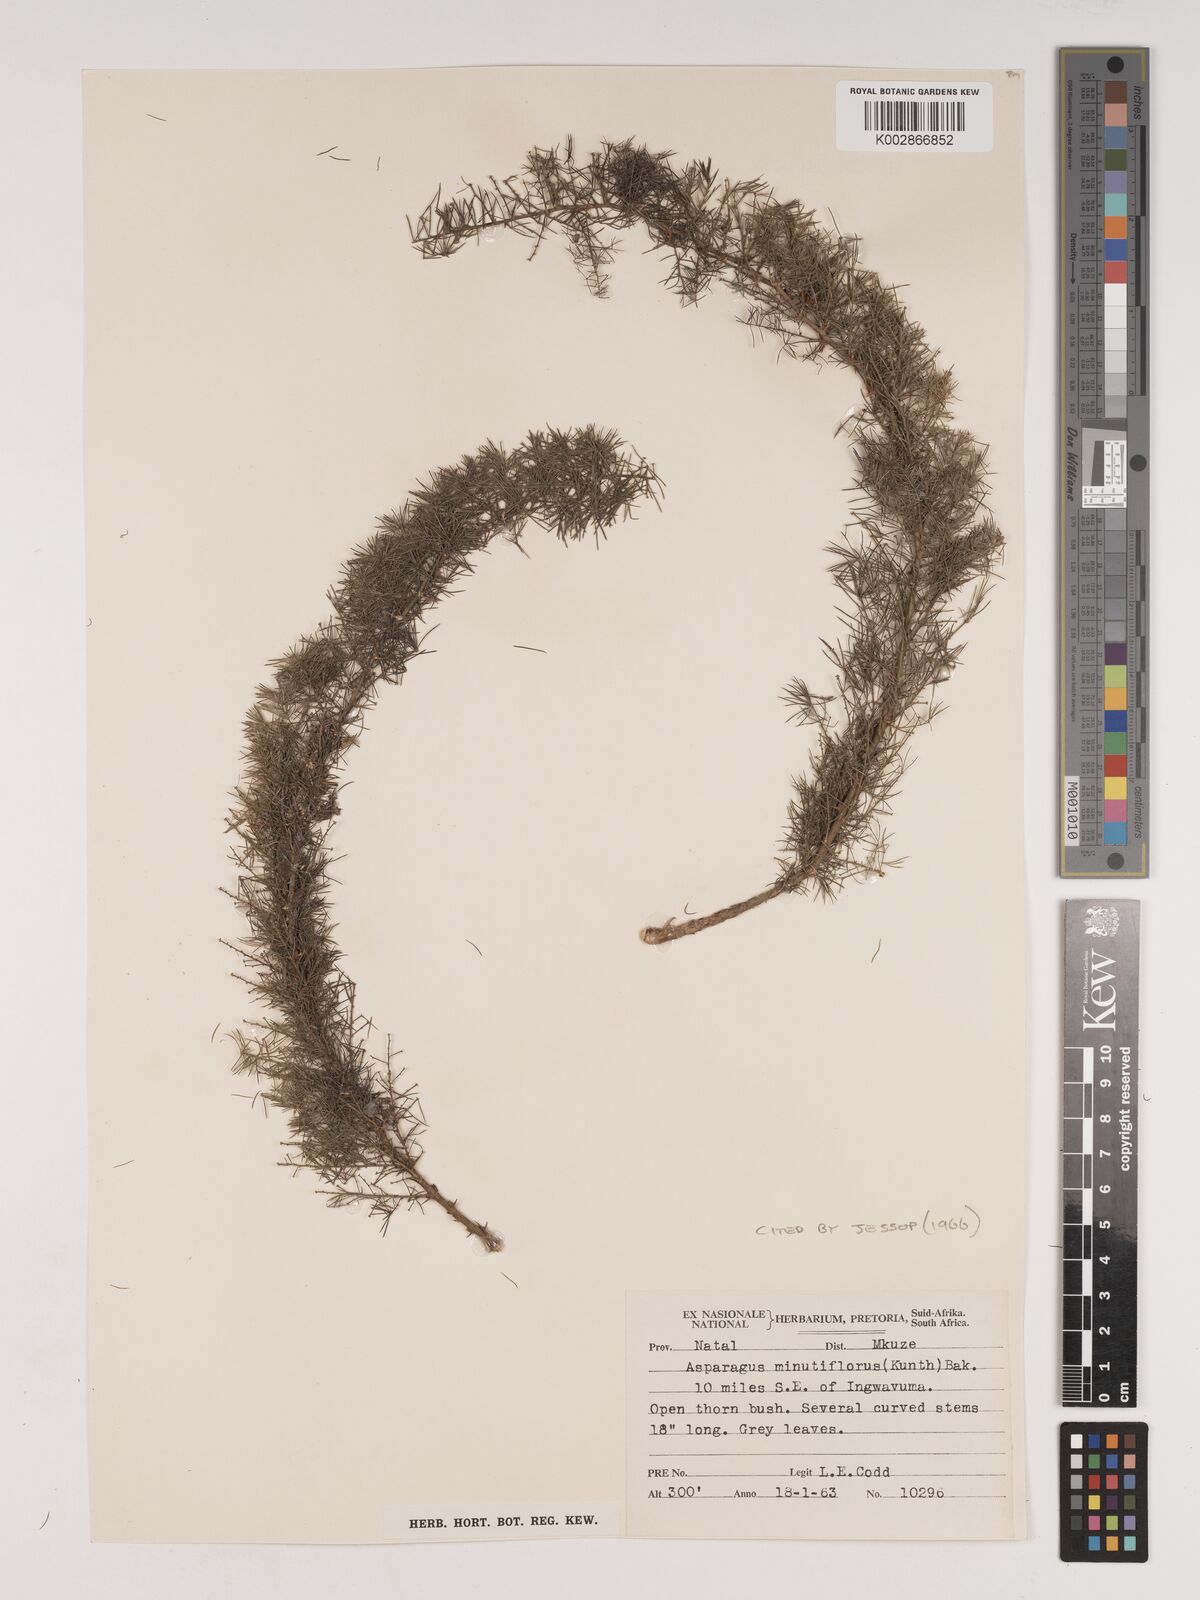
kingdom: Plantae
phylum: Tracheophyta
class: Liliopsida
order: Asparagales
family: Asparagaceae
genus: Asparagus
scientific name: Asparagus minutiflorus
